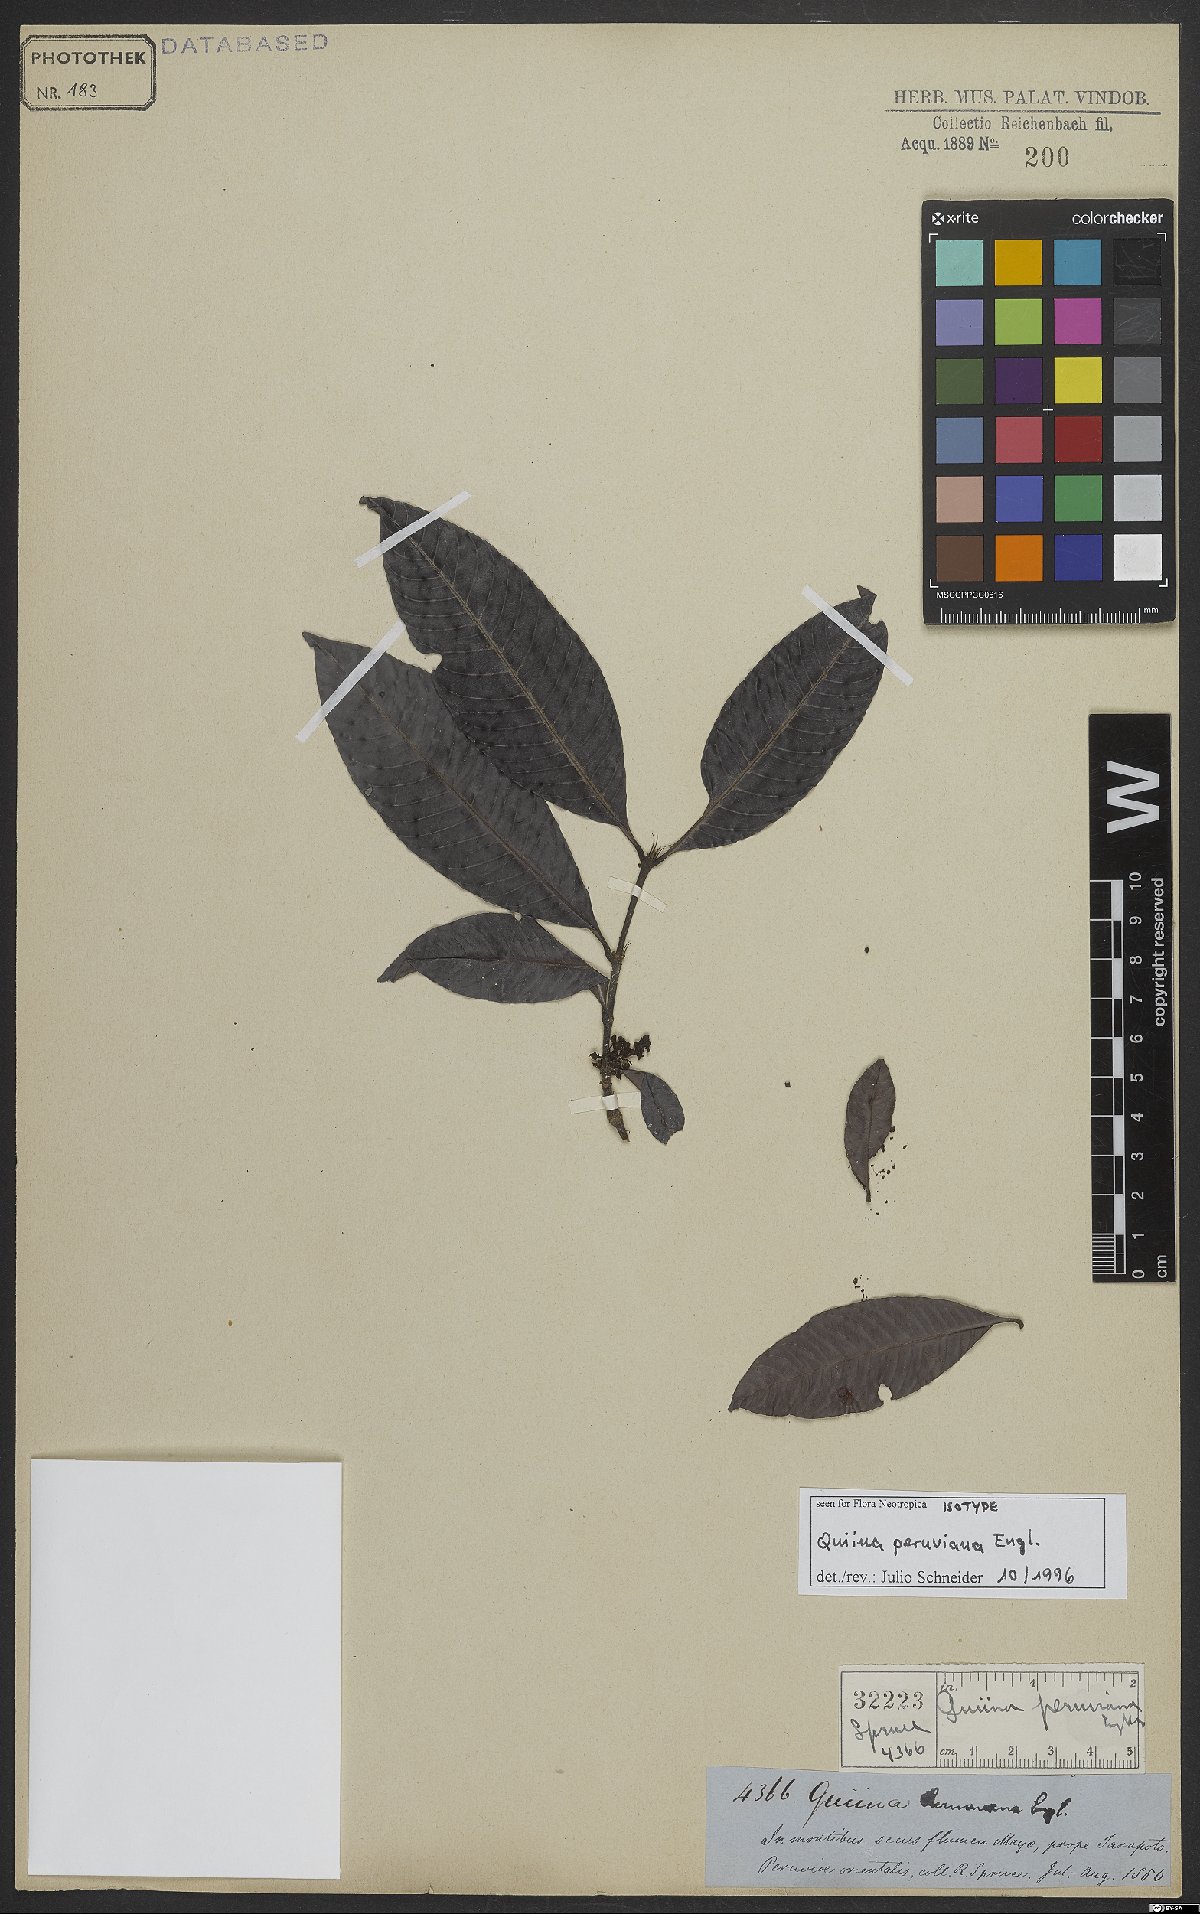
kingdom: Plantae
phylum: Tracheophyta
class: Magnoliopsida
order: Malpighiales
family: Quiinaceae
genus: Quiina
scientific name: Quiina cruegeriana
